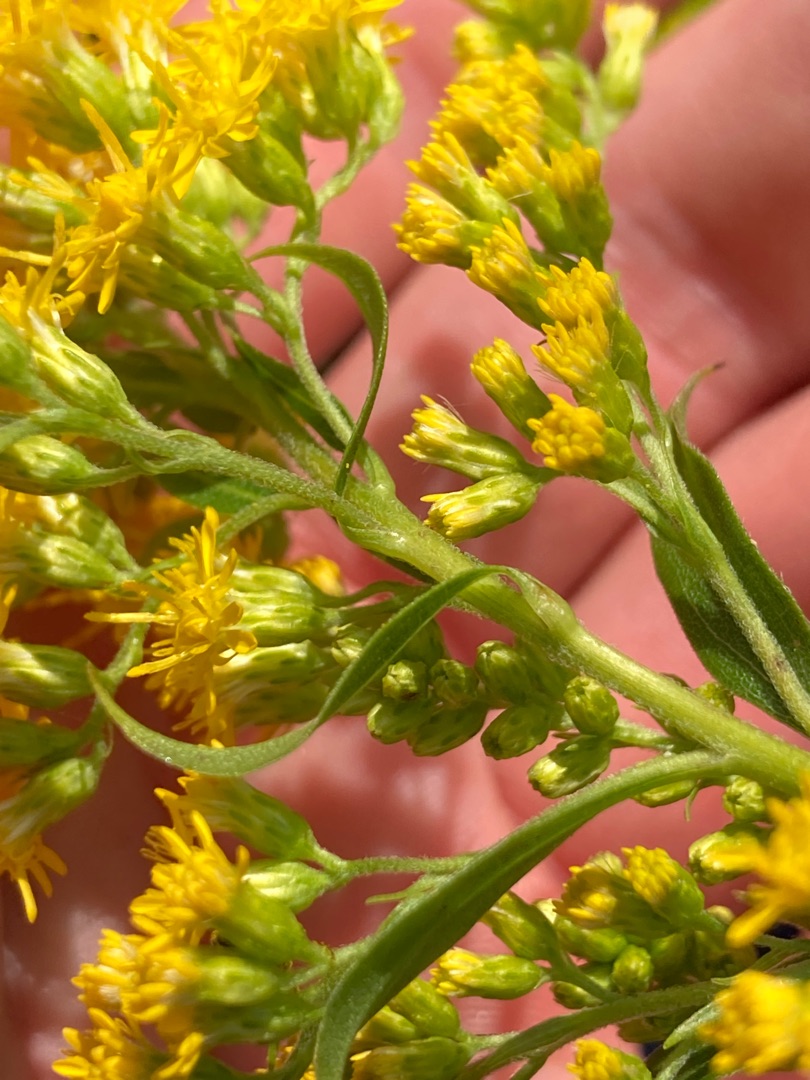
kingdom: Plantae
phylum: Tracheophyta
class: Magnoliopsida
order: Asterales
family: Asteraceae
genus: Solidago
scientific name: Solidago gigantea
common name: Sildig gyldenris
